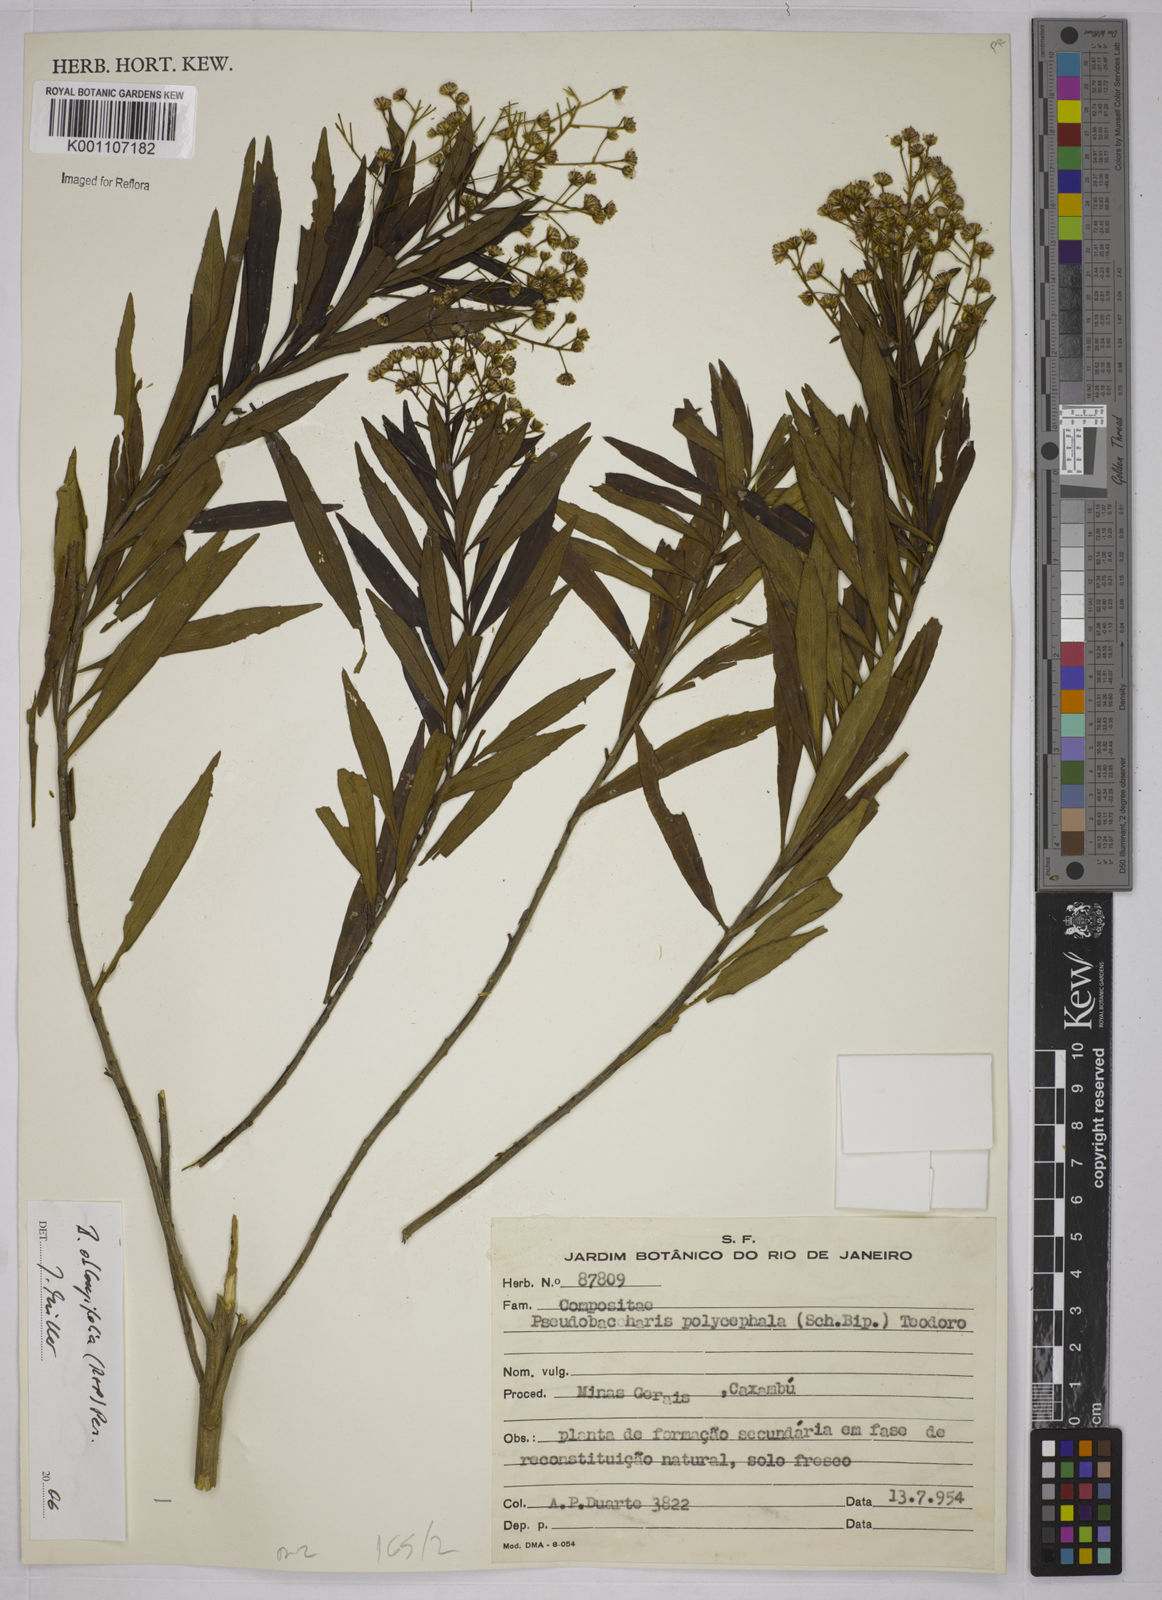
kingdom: Plantae
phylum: Tracheophyta
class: Magnoliopsida
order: Asterales
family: Asteraceae
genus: Baccharis
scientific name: Baccharis oblongifolia
